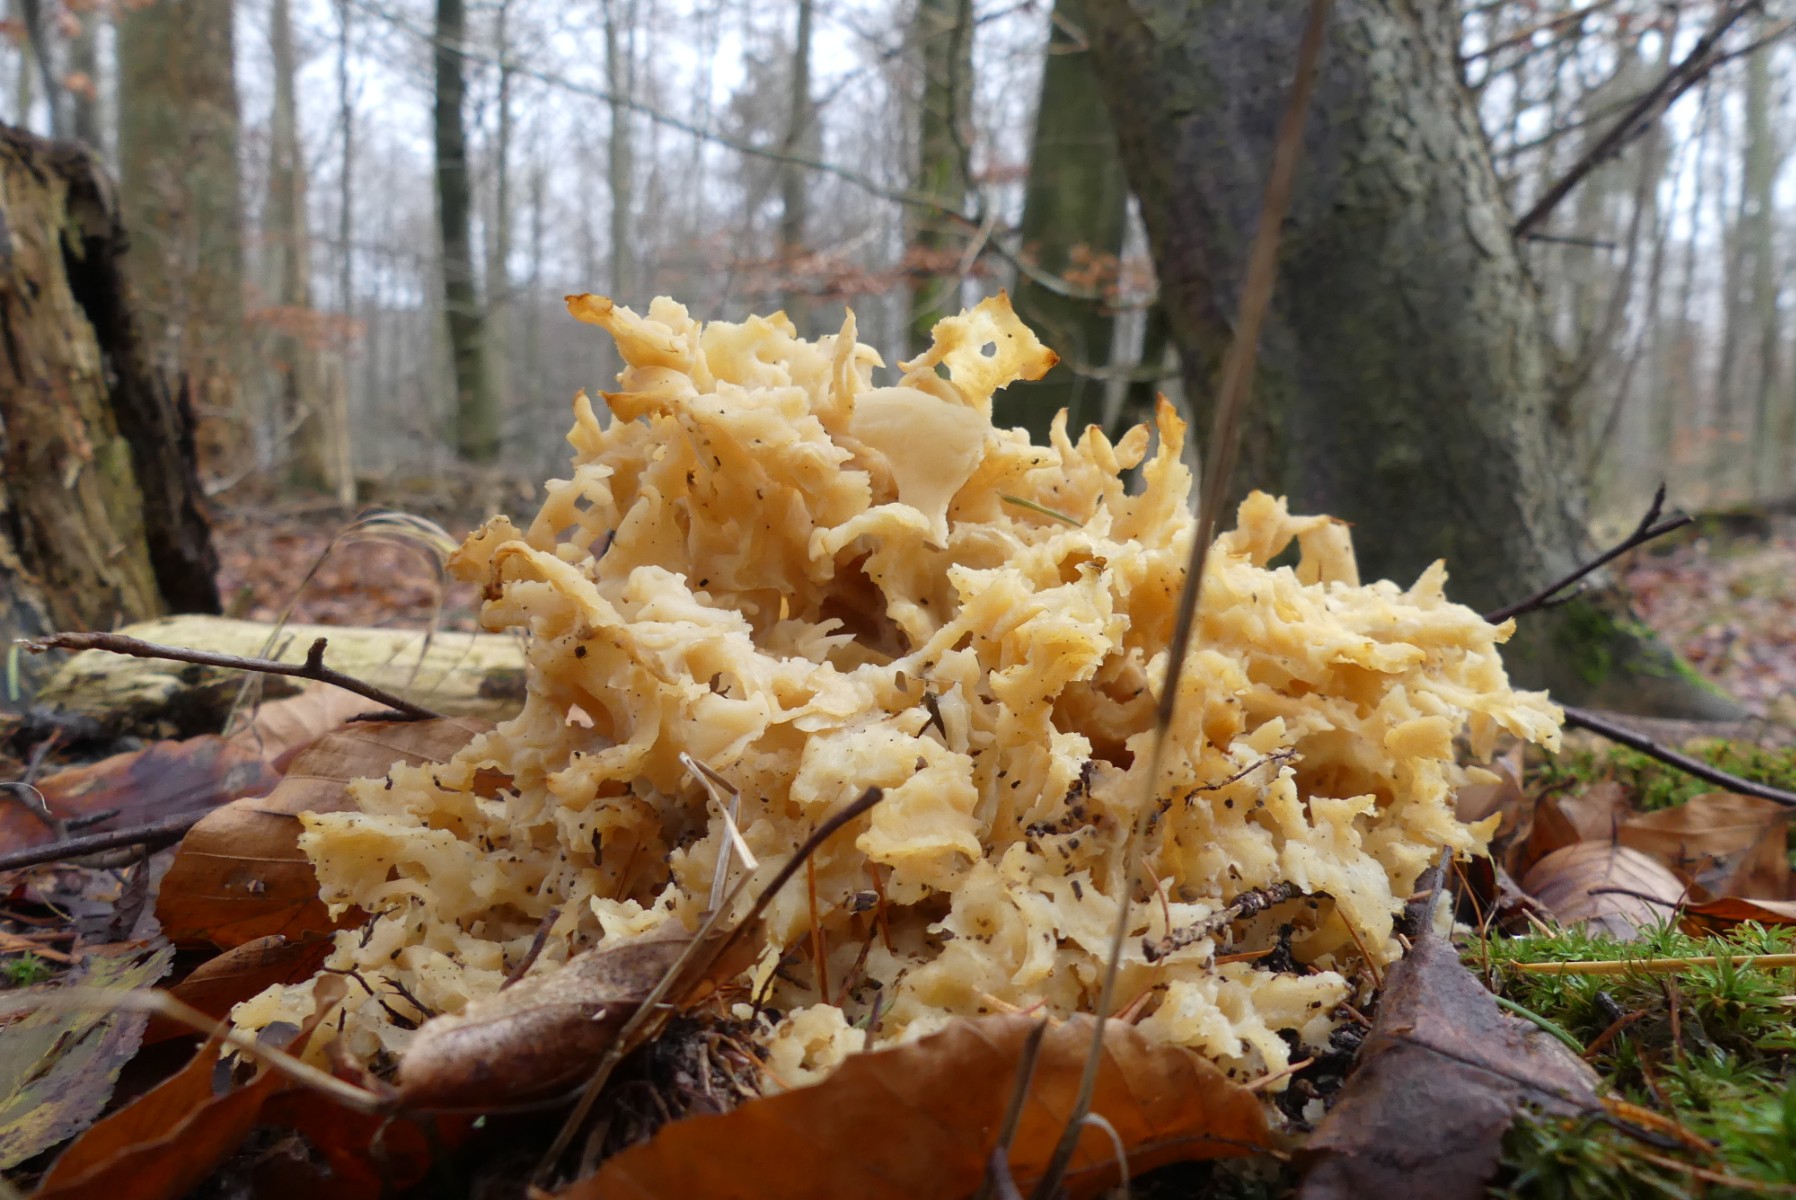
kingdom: Fungi
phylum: Basidiomycota
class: Agaricomycetes
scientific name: Agaricomycetes
